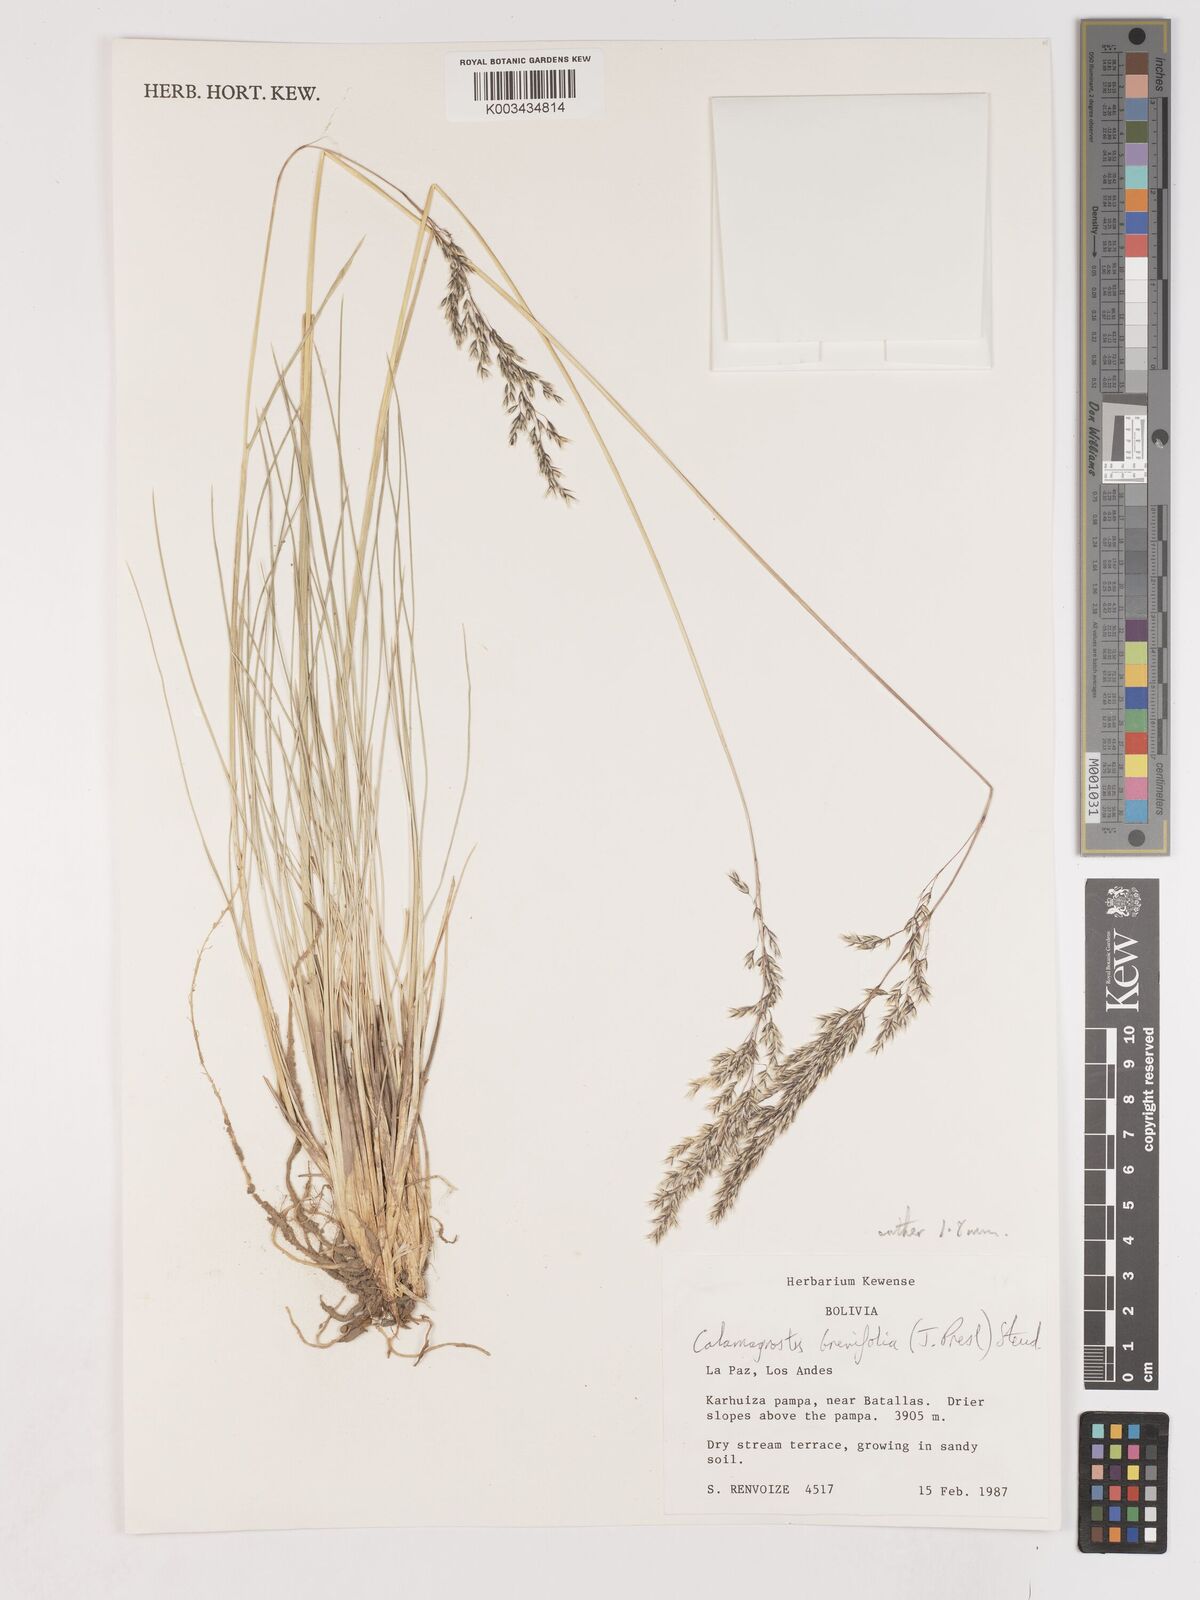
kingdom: Plantae
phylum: Tracheophyta
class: Liliopsida
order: Poales
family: Poaceae
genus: Cinnagrostis
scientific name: Cinnagrostis orbignyana
